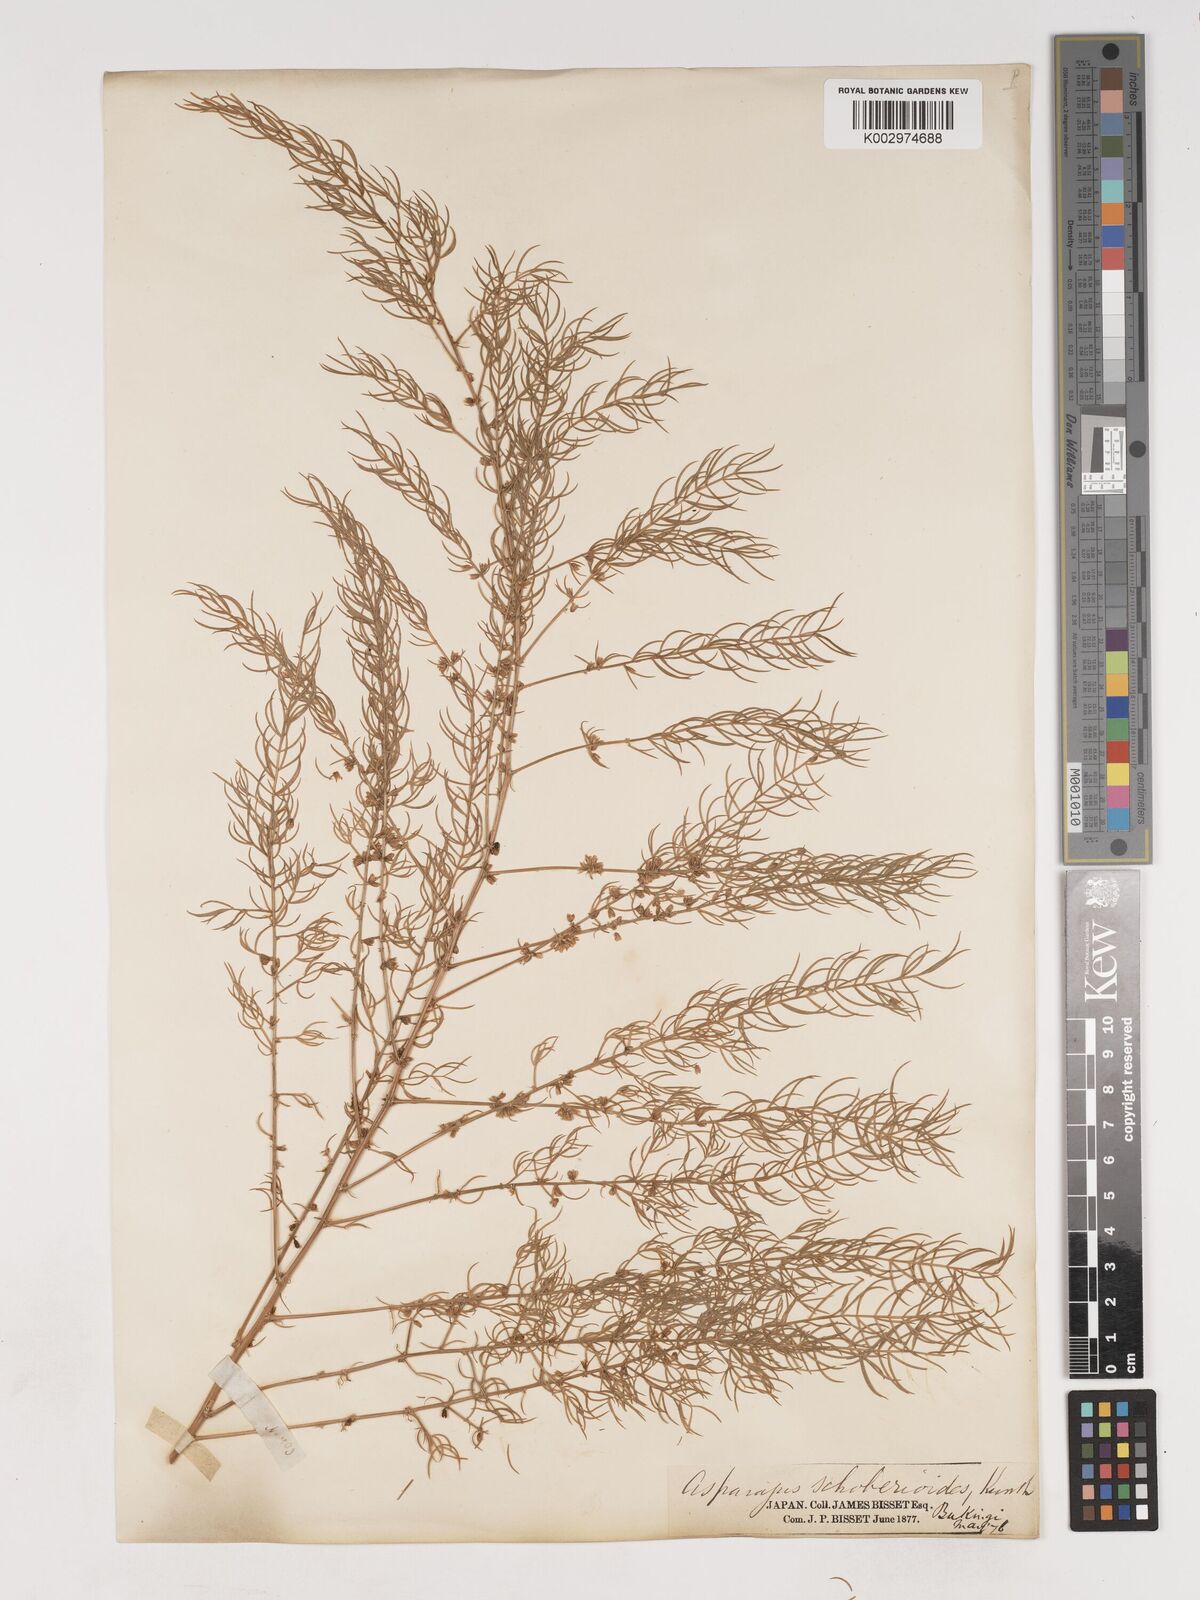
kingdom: Plantae
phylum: Tracheophyta
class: Liliopsida
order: Asparagales
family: Asparagaceae
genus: Asparagus
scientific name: Asparagus schoberioides
